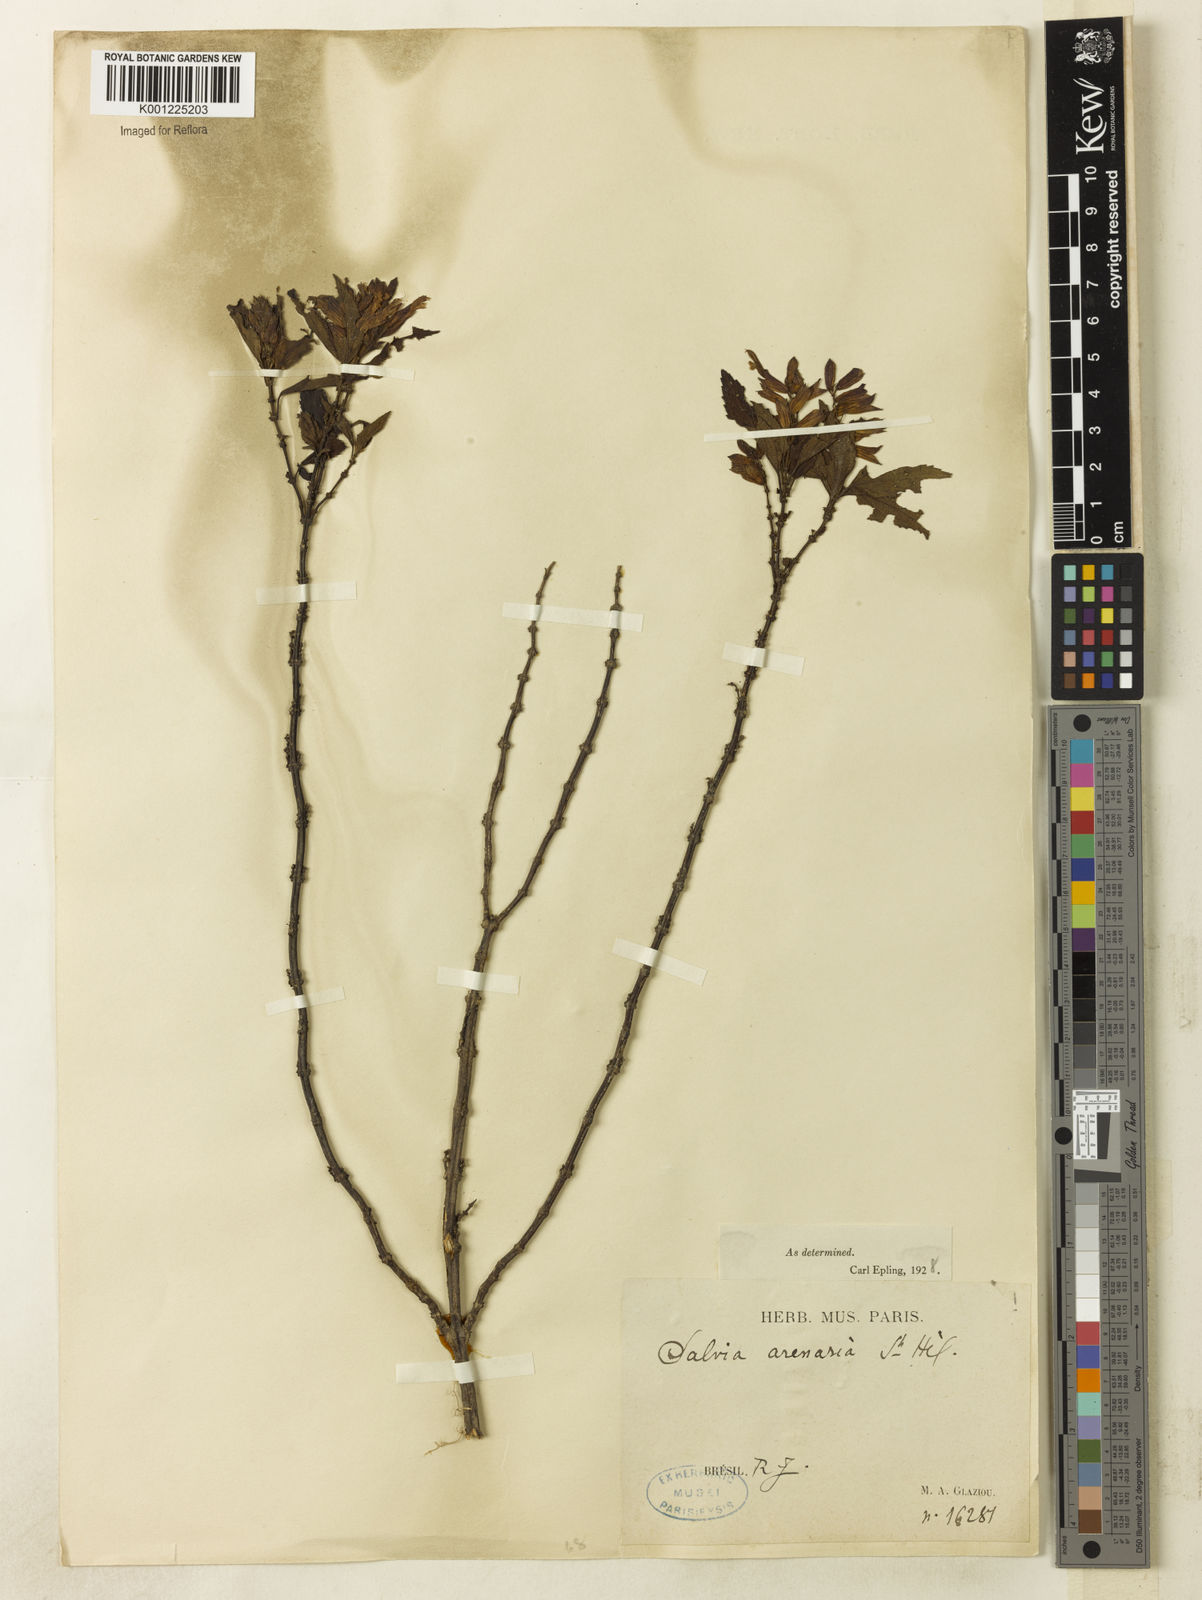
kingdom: Plantae
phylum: Tracheophyta
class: Magnoliopsida
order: Lamiales
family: Lamiaceae
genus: Salvia
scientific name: Salvia arenaria
